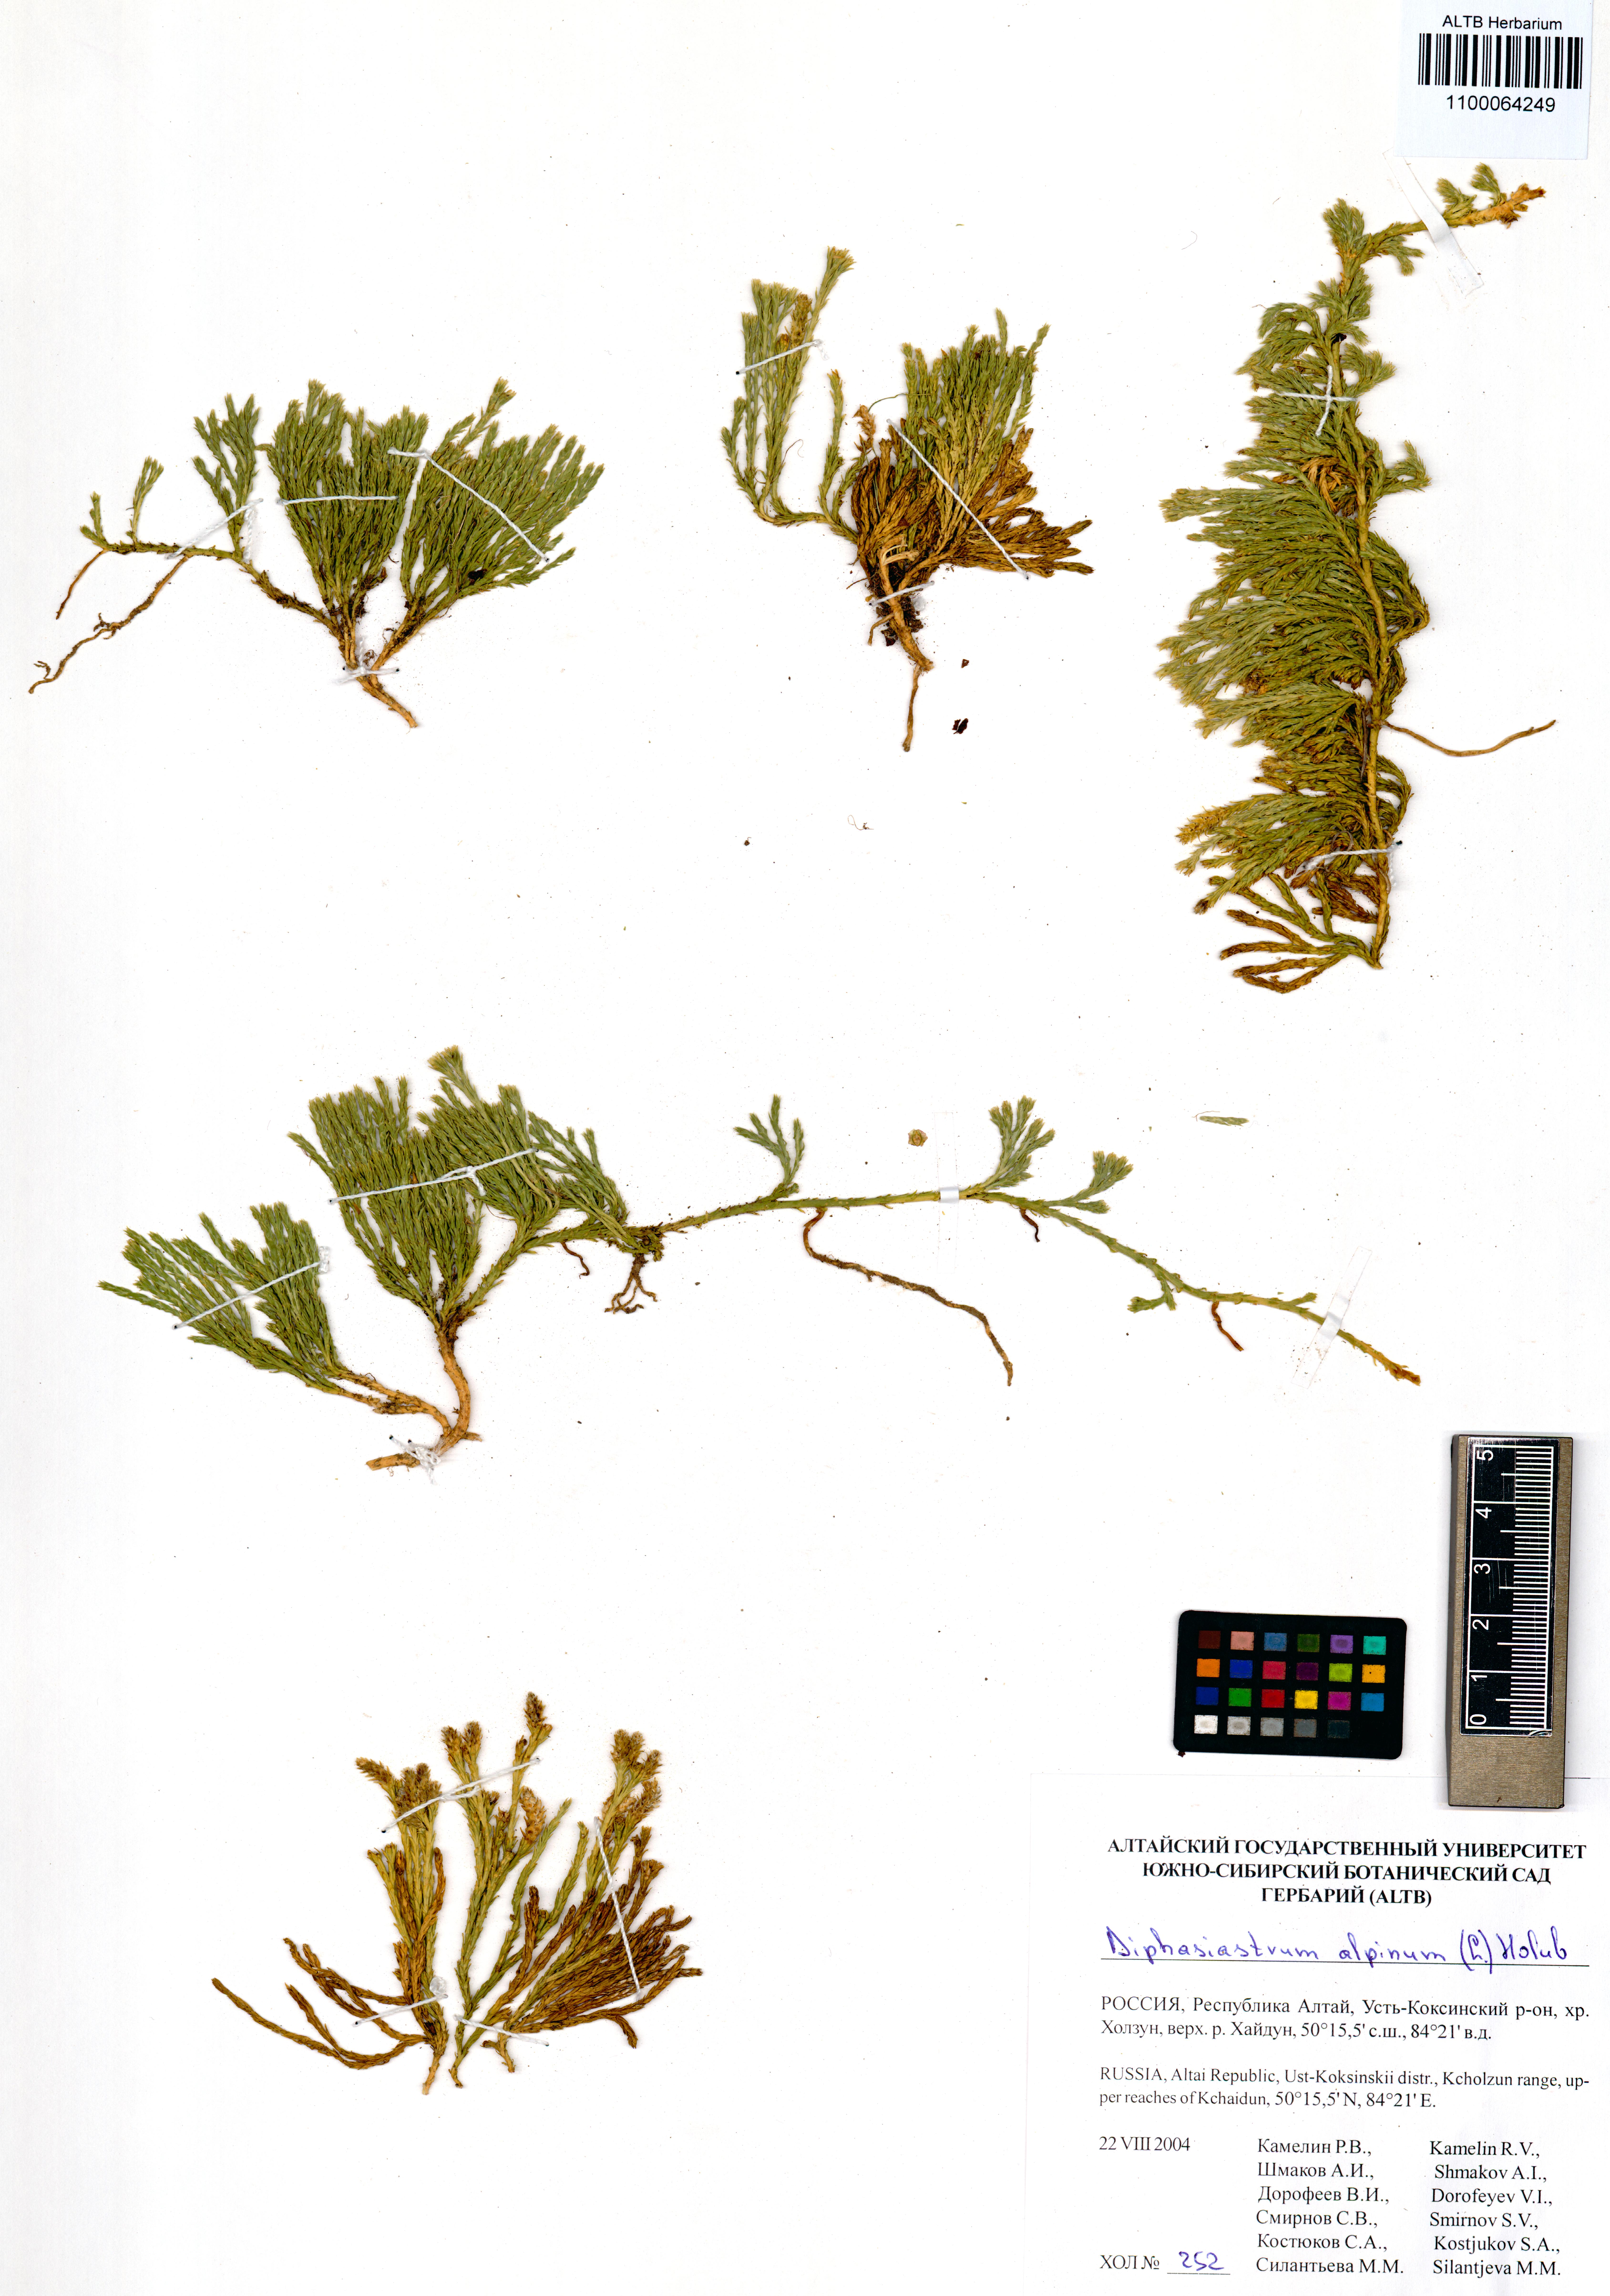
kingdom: Plantae
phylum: Tracheophyta
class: Lycopodiopsida
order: Lycopodiales
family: Lycopodiaceae
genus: Diphasiastrum
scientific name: Diphasiastrum alpinum
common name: Alpine clubmoss
